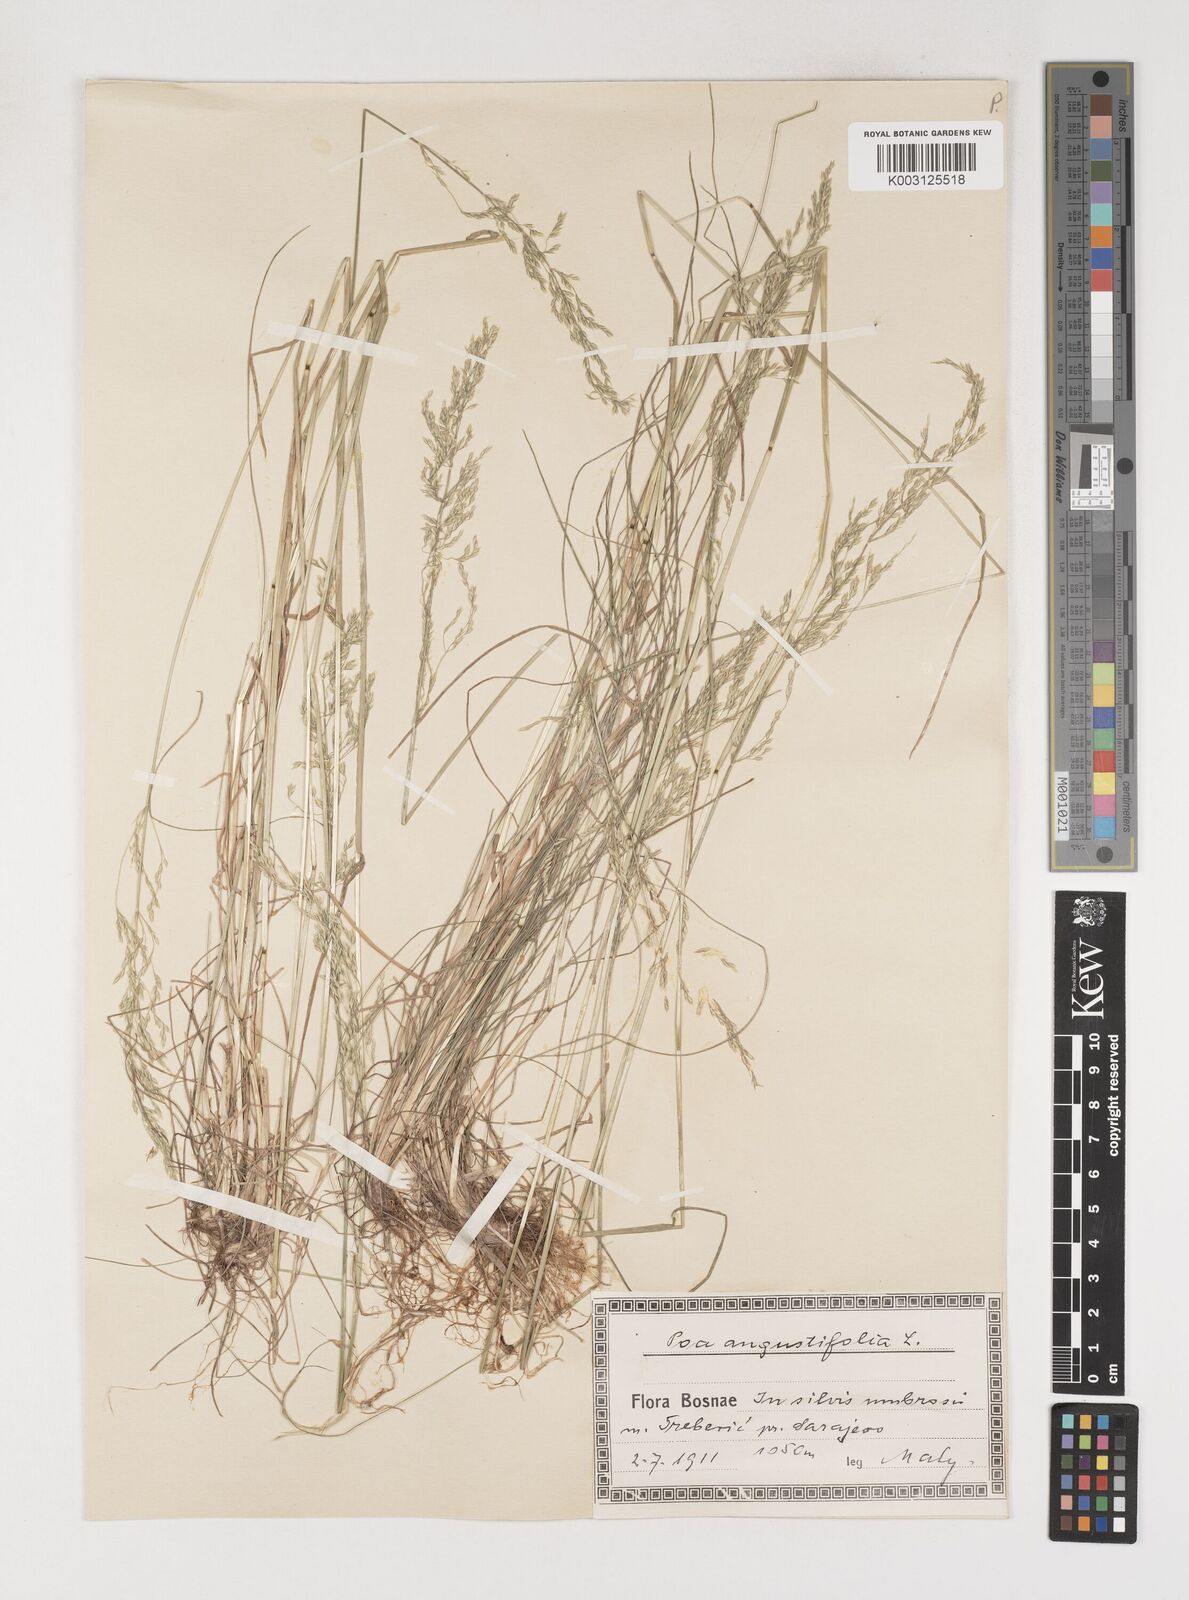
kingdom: Plantae
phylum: Tracheophyta
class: Liliopsida
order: Poales
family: Poaceae
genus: Poa
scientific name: Poa angustifolia
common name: Narrow-leaved meadow-grass
